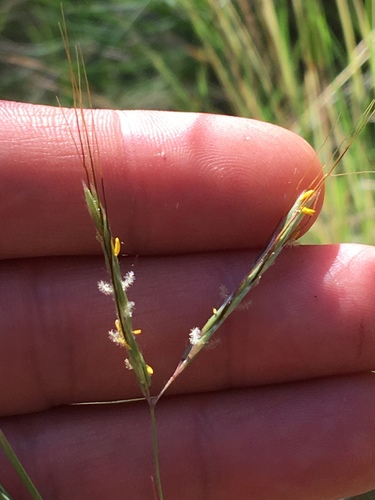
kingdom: Plantae
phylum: Tracheophyta
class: Liliopsida
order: Poales
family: Poaceae
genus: Hyparrhenia
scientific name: Hyparrhenia hirta
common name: Thatching grass
